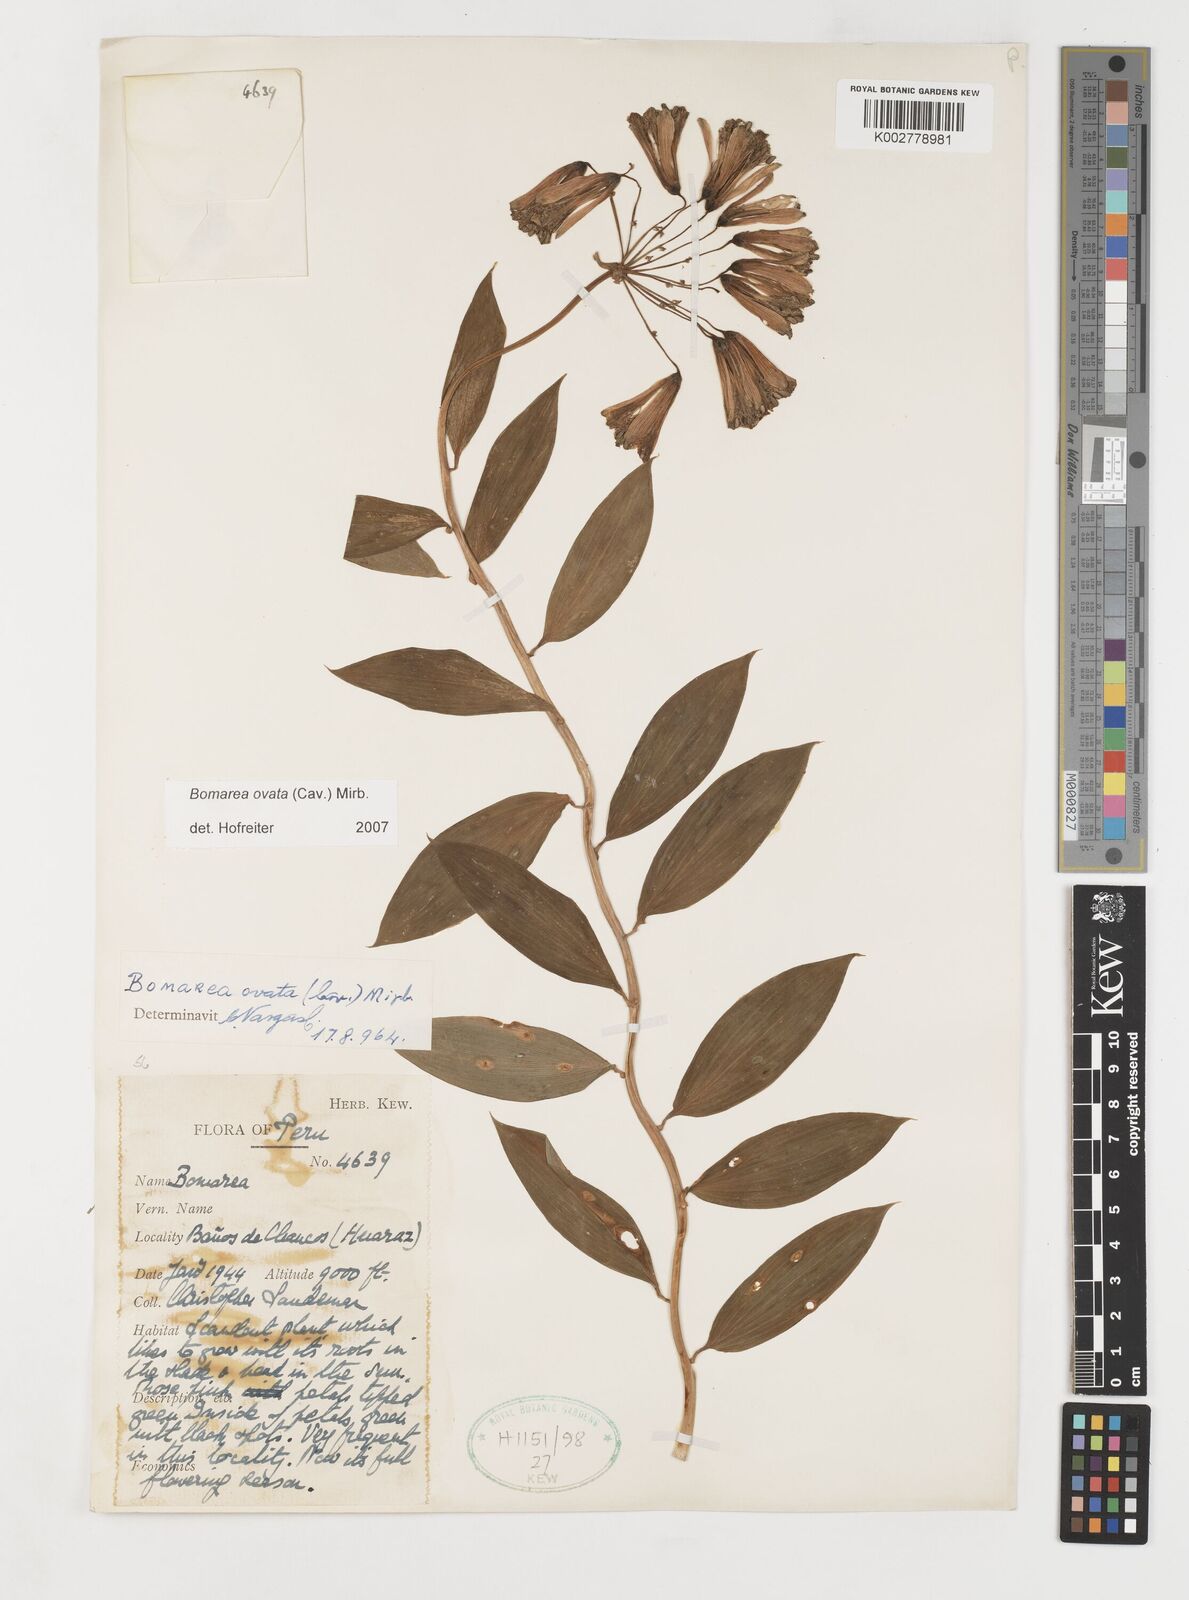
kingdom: Plantae
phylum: Tracheophyta
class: Liliopsida
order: Liliales
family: Alstroemeriaceae
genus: Bomarea
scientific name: Bomarea ovata
